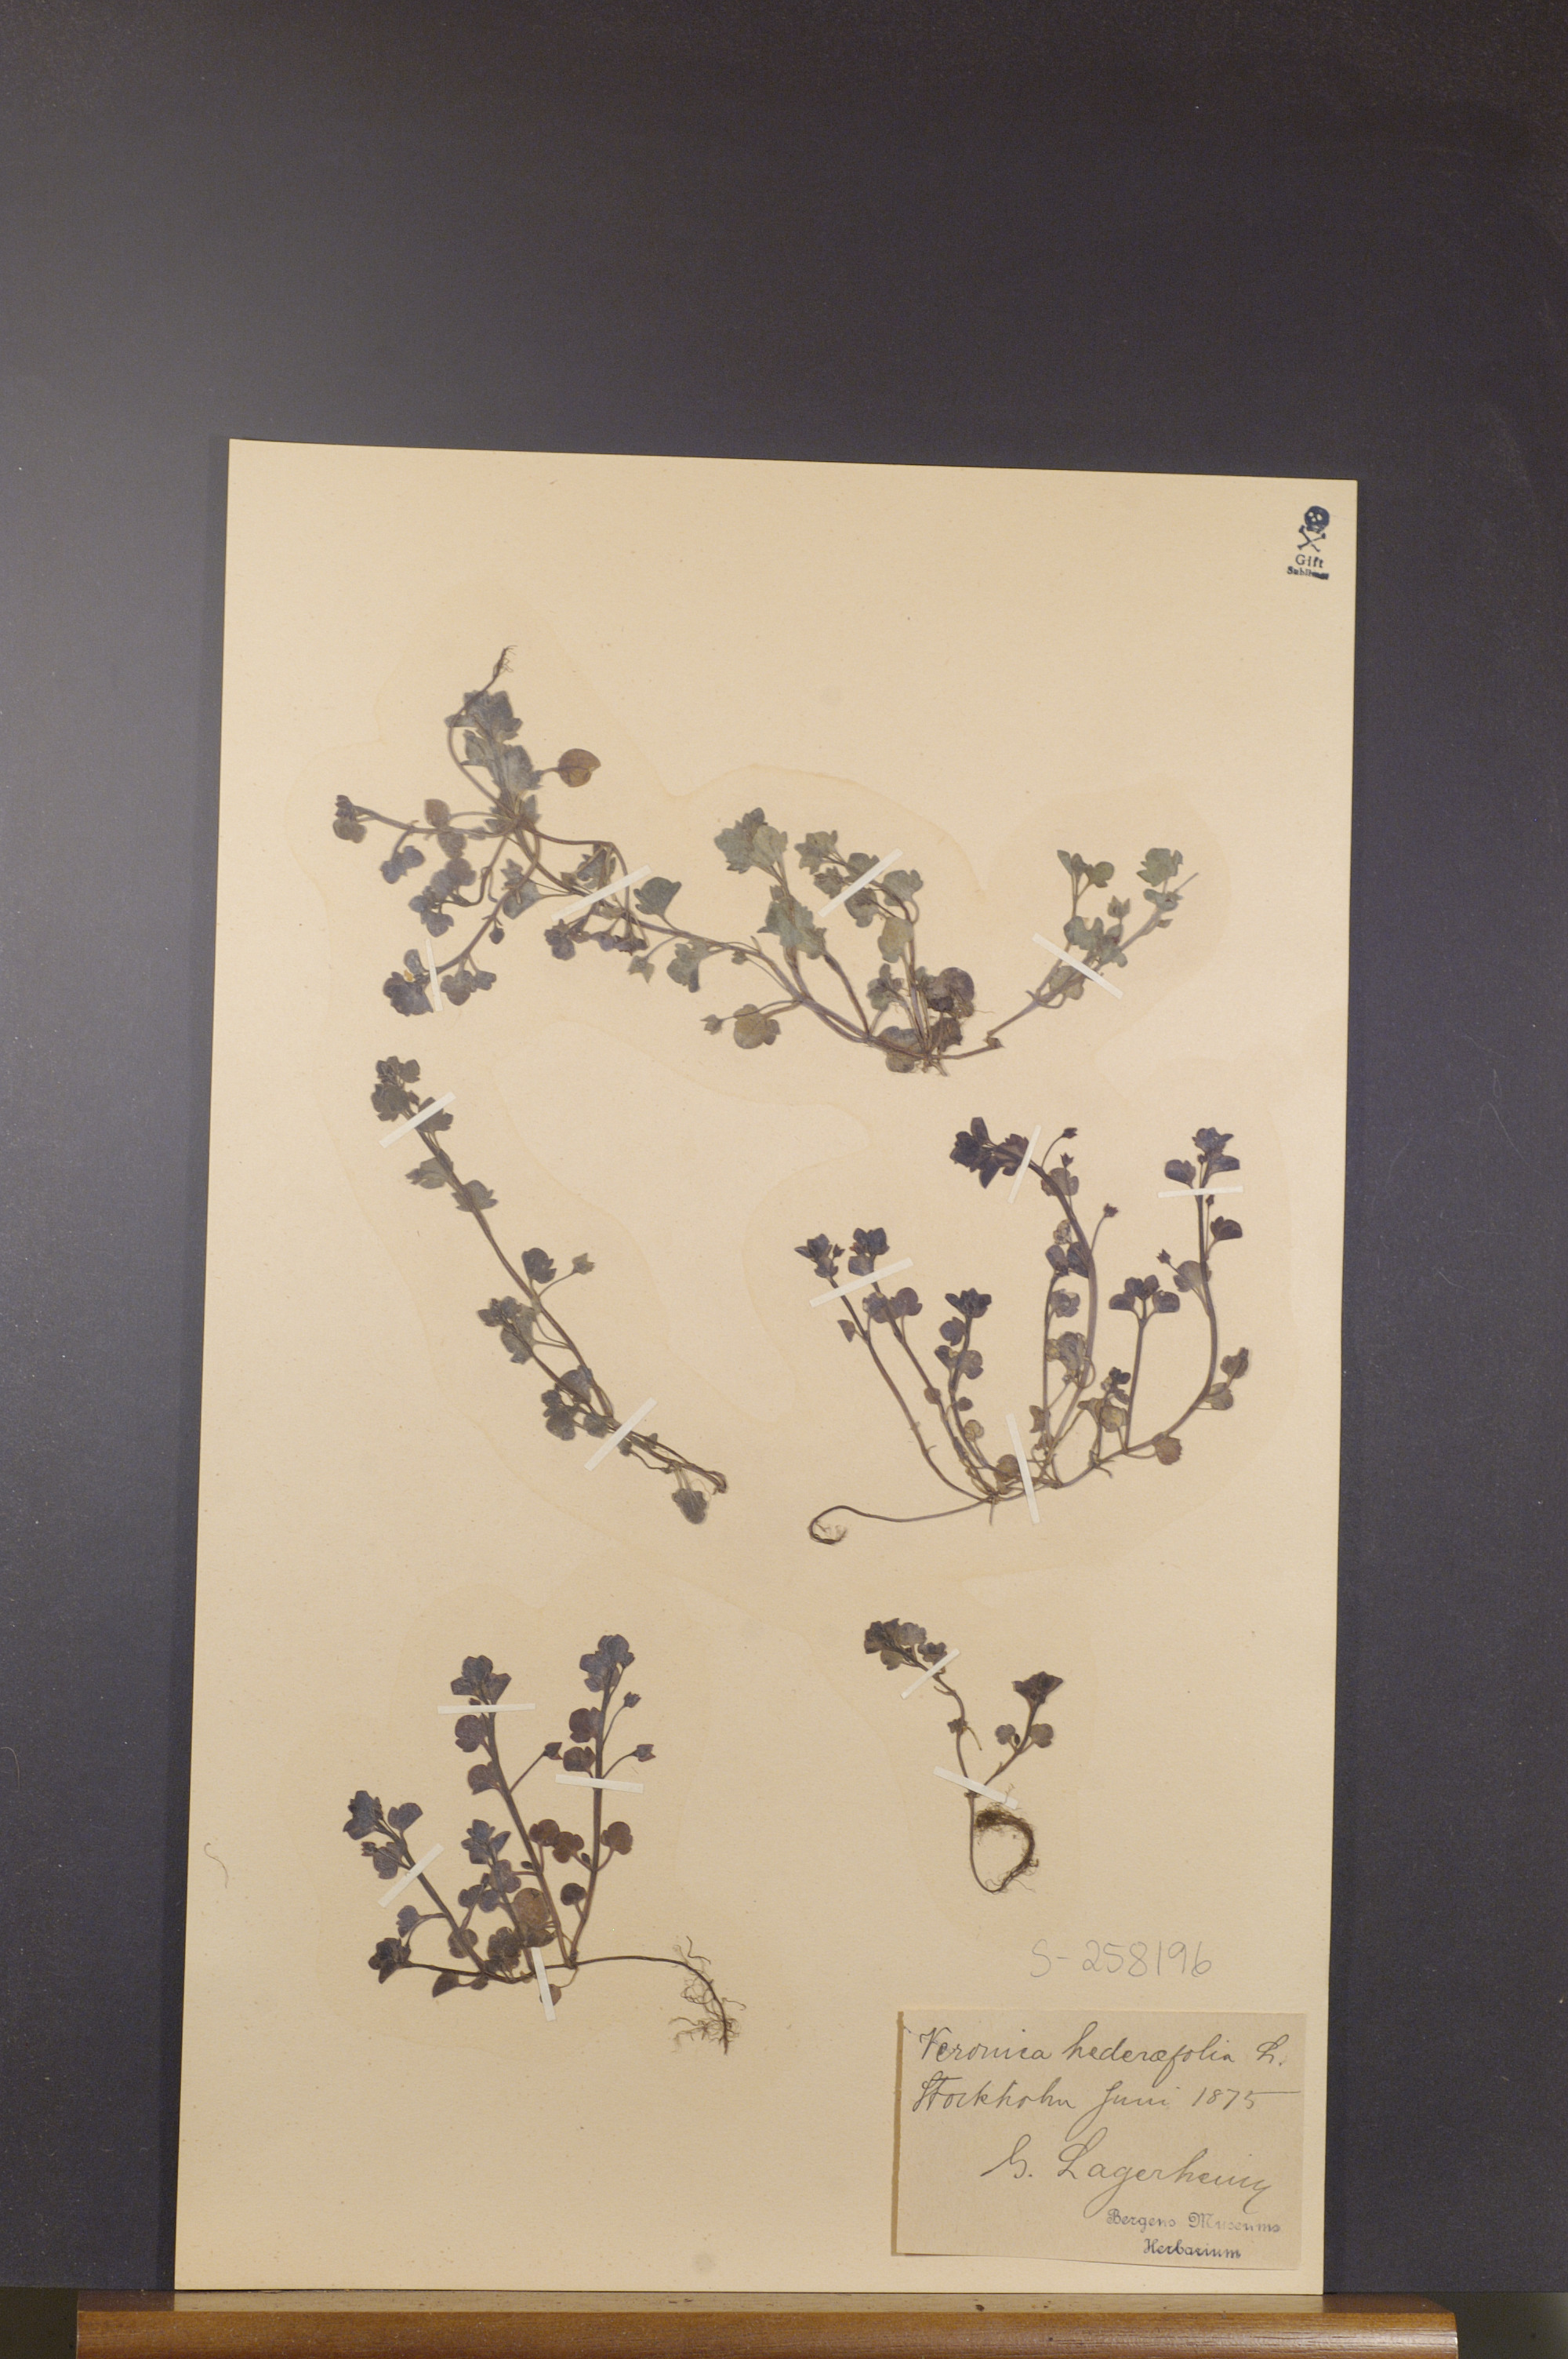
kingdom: Plantae
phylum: Tracheophyta
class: Magnoliopsida
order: Lamiales
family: Plantaginaceae
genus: Veronica
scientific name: Veronica hederifolia
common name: Ivy-leaved speedwell
